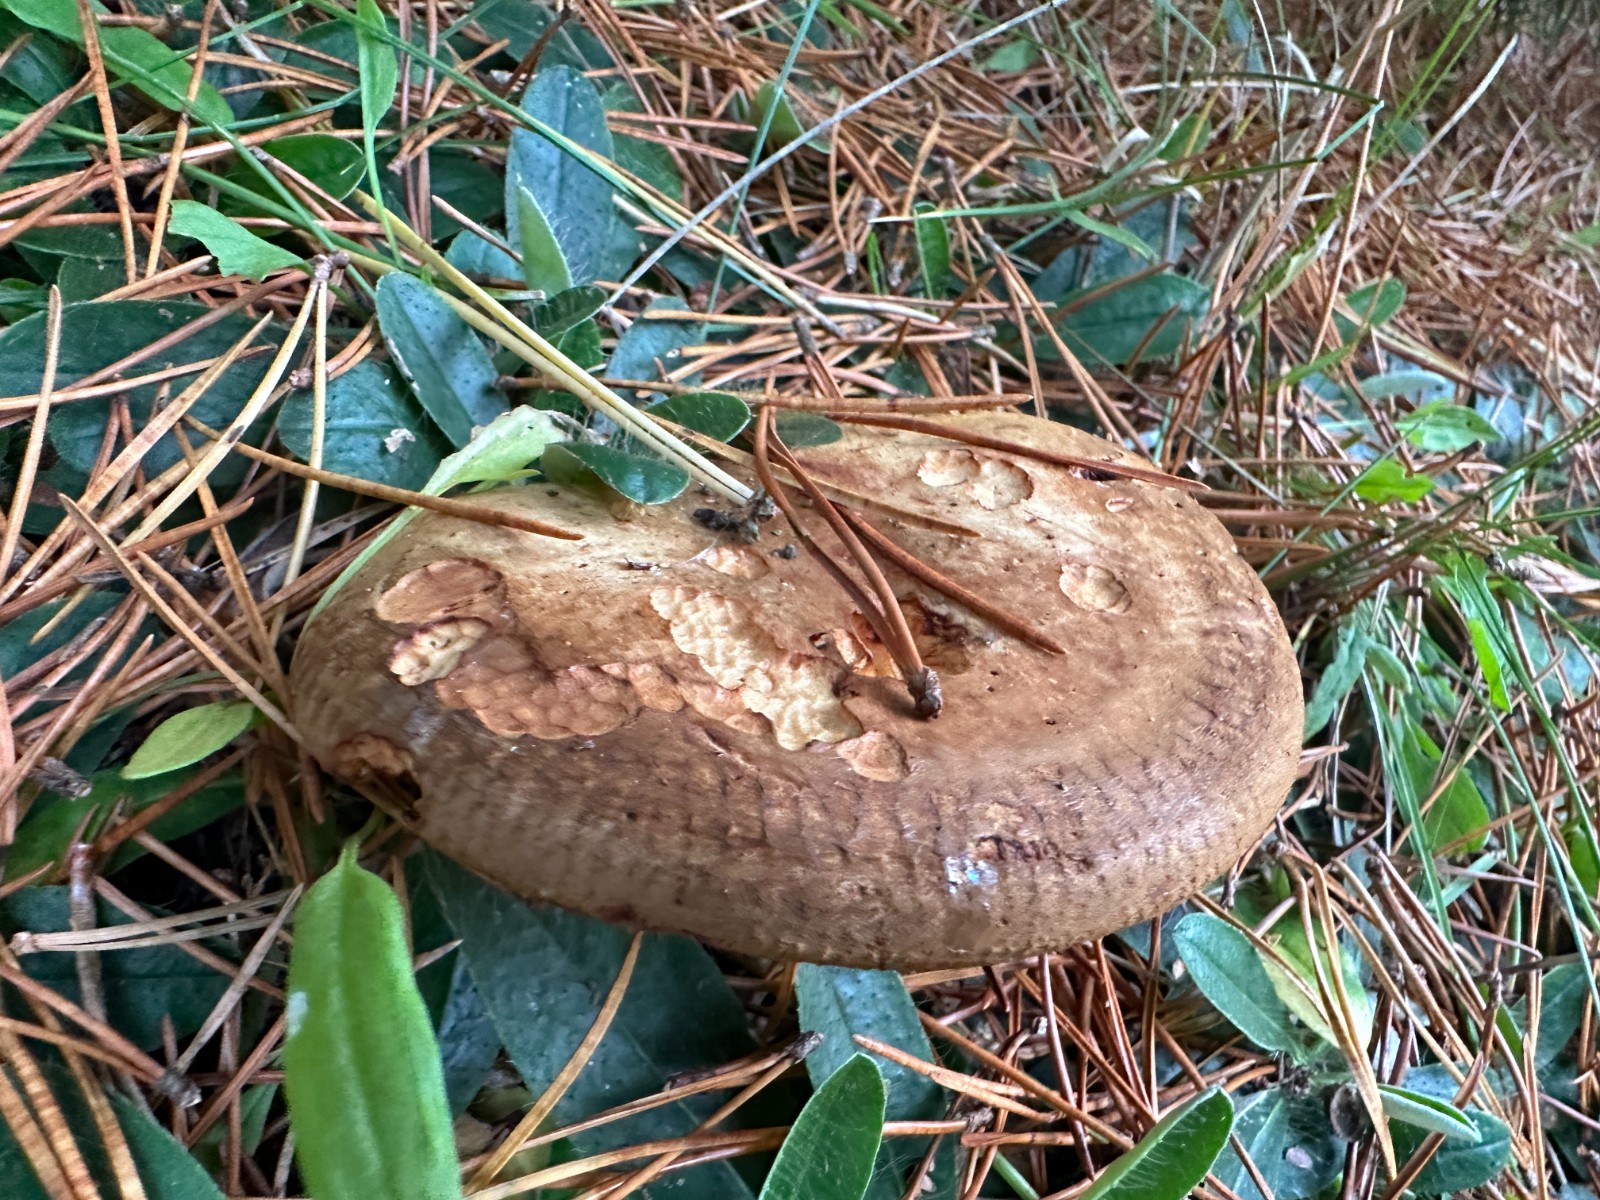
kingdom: Fungi
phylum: Basidiomycota
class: Agaricomycetes
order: Boletales
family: Paxillaceae
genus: Paxillus
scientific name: Paxillus involutus
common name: almindelig netbladhat
